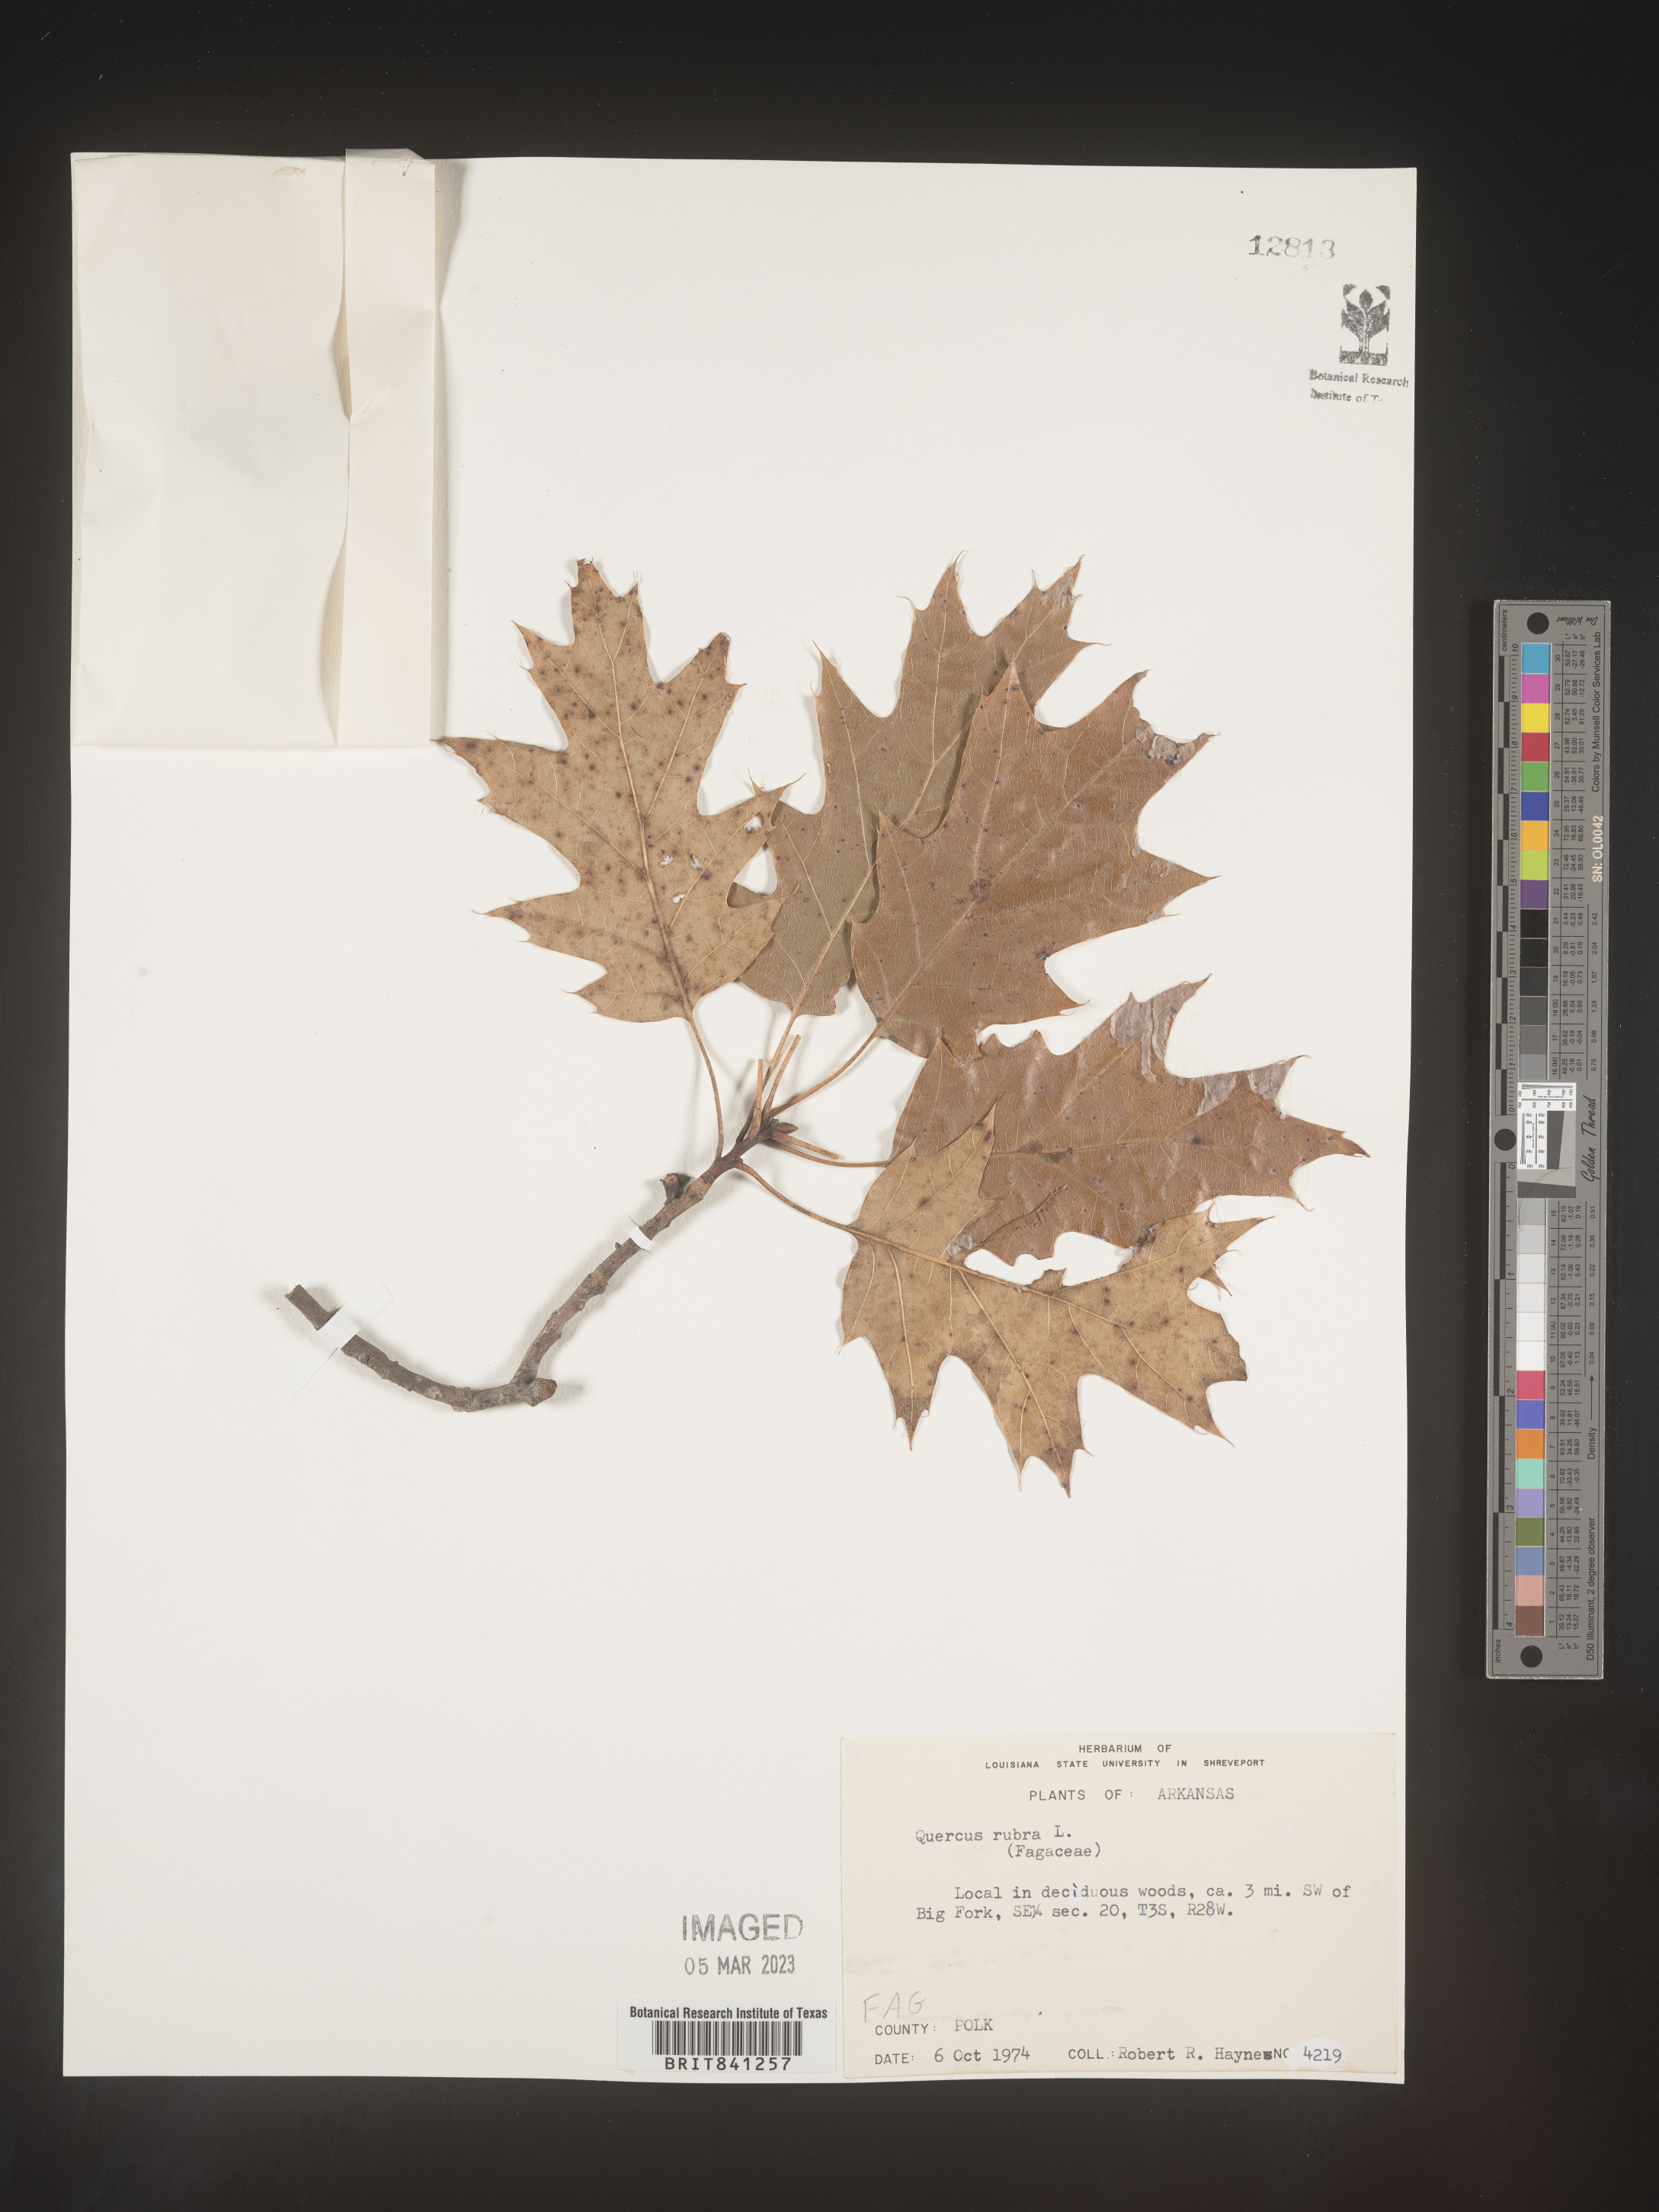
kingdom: Plantae
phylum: Tracheophyta
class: Magnoliopsida
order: Fagales
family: Fagaceae
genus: Quercus
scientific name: Quercus rubra
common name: Red oak
